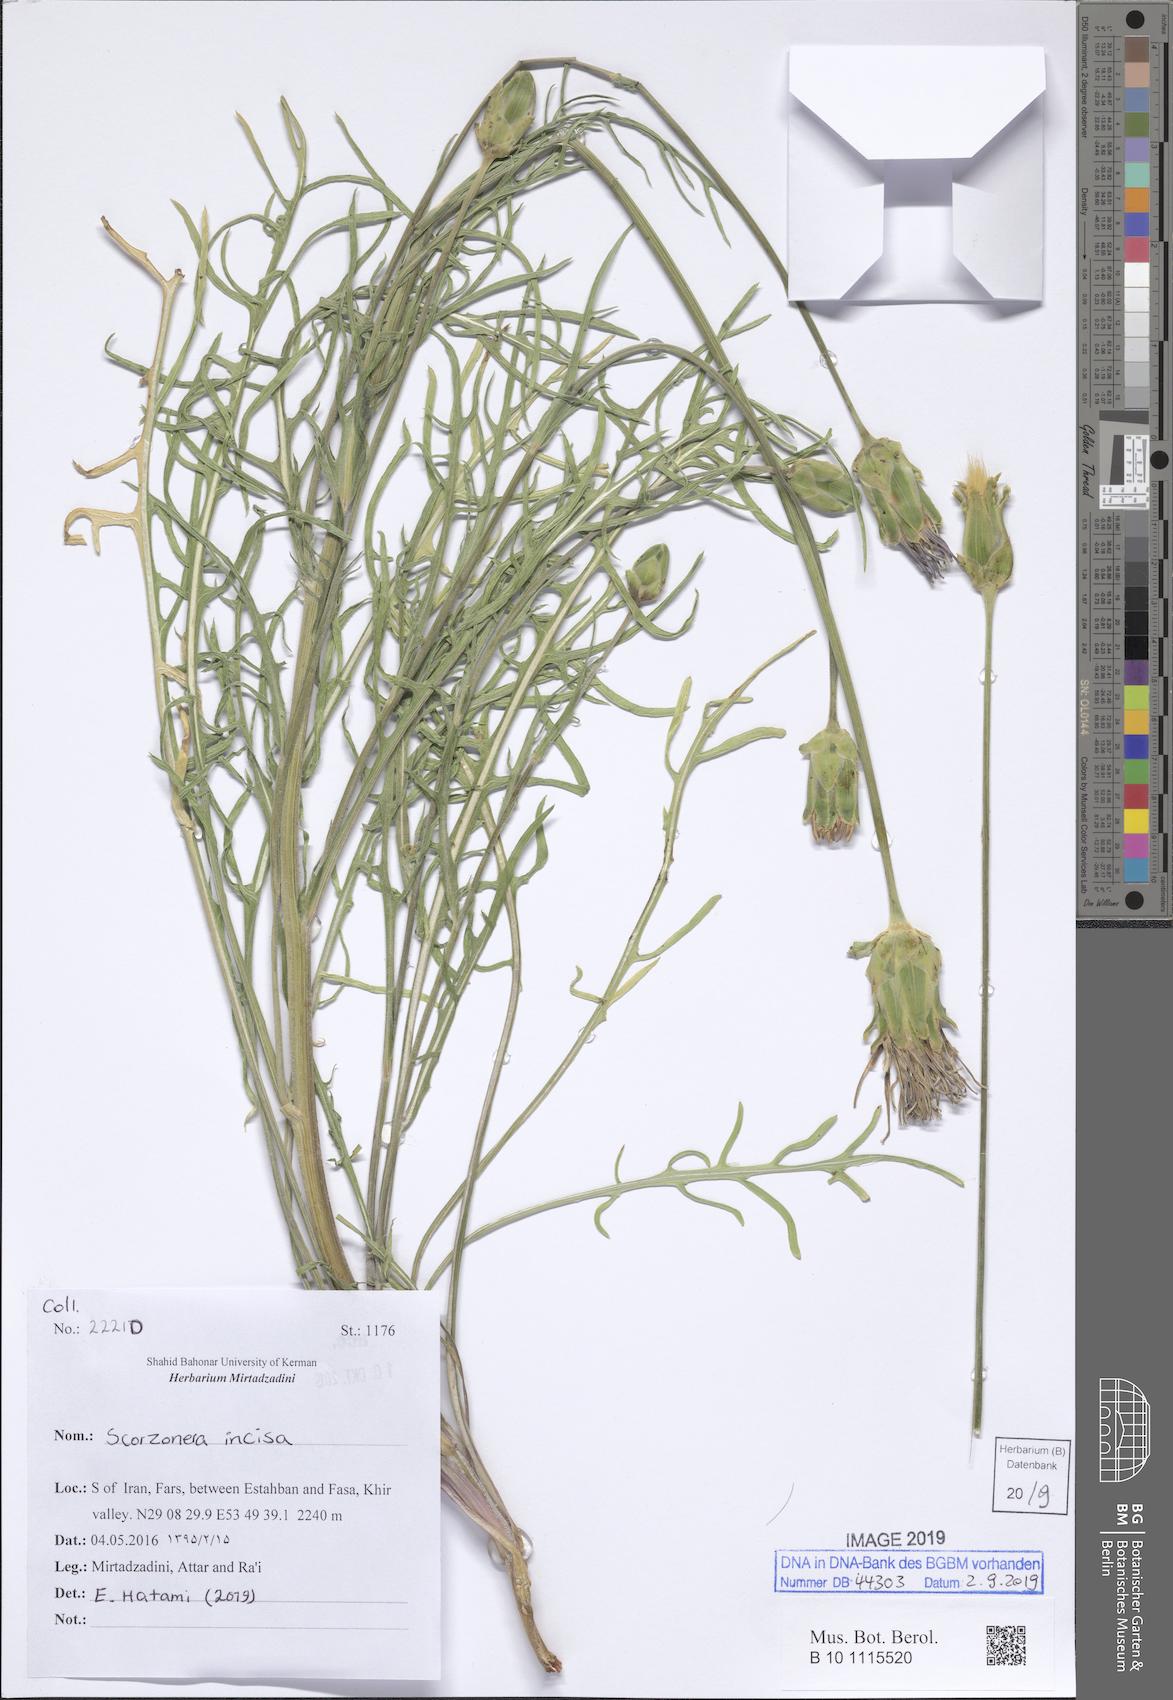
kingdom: Plantae
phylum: Tracheophyta
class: Magnoliopsida
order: Asterales
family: Asteraceae
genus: Aslia
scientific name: Aslia incisa
